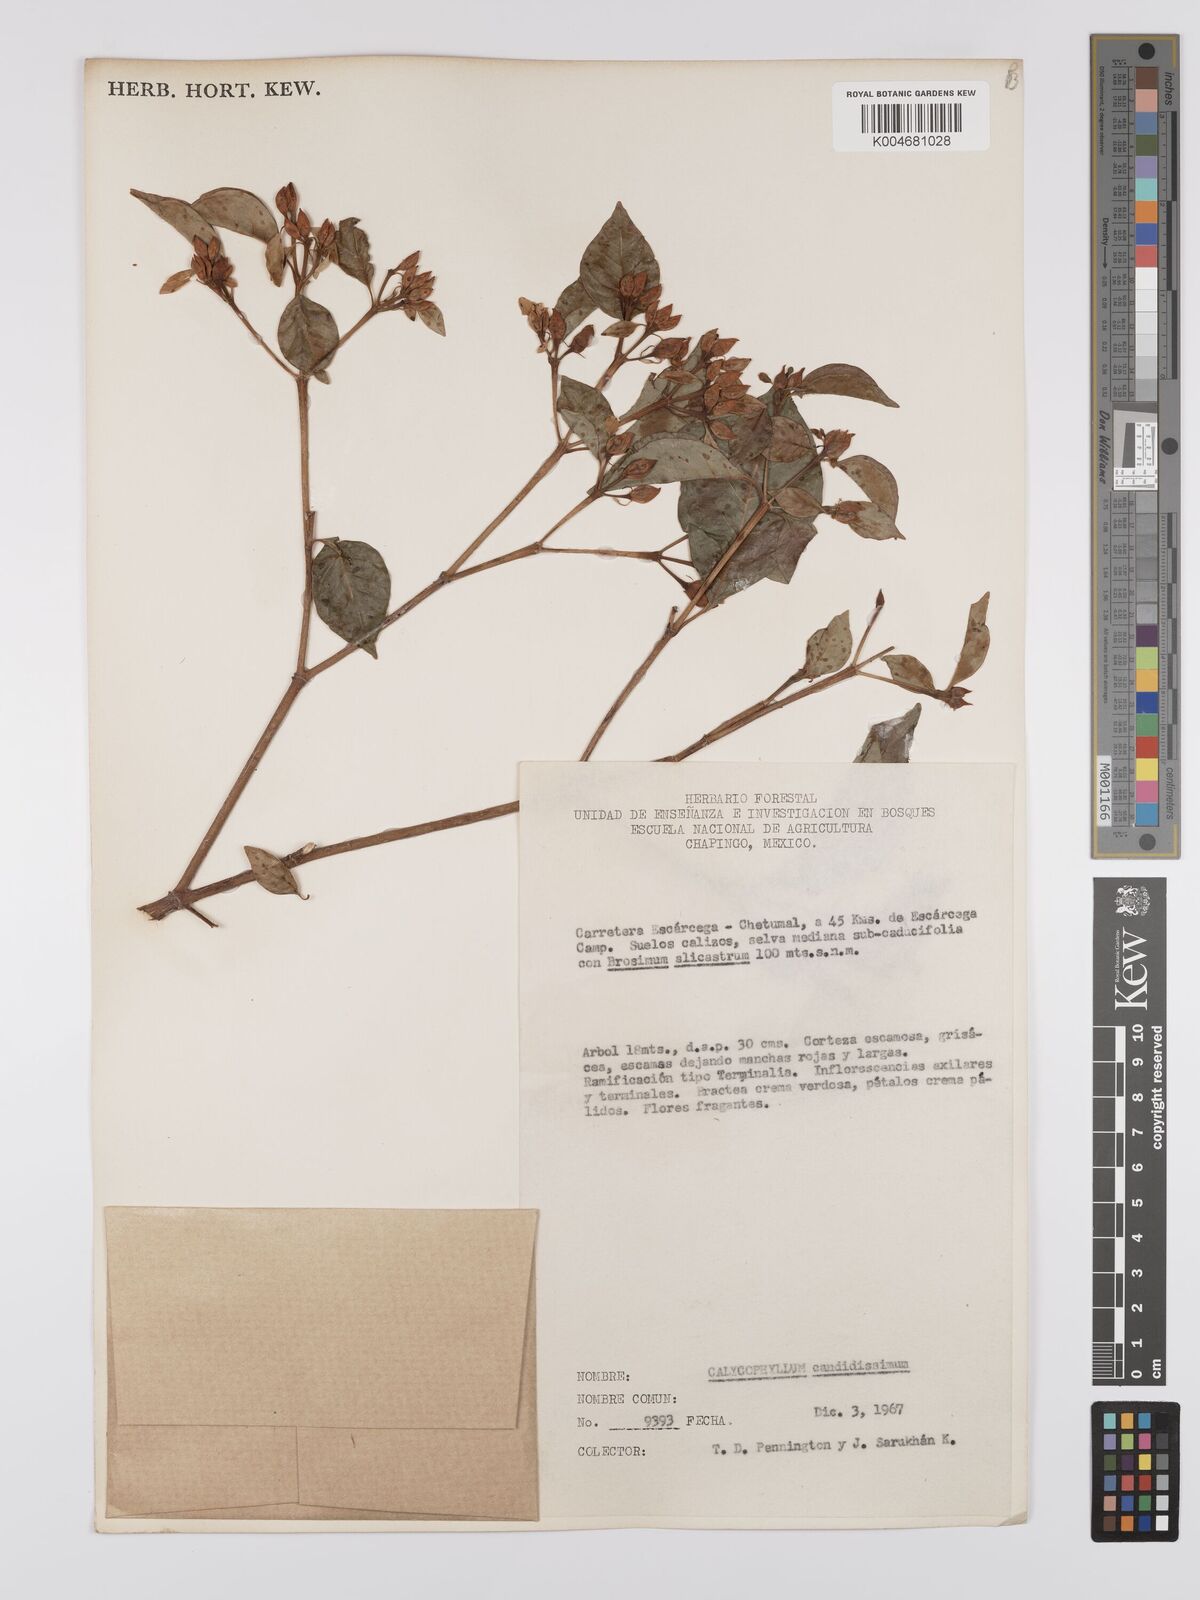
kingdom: Plantae
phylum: Tracheophyta
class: Magnoliopsida
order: Gentianales
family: Rubiaceae
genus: Calycophyllum
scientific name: Calycophyllum candidissimum
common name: Dagame
